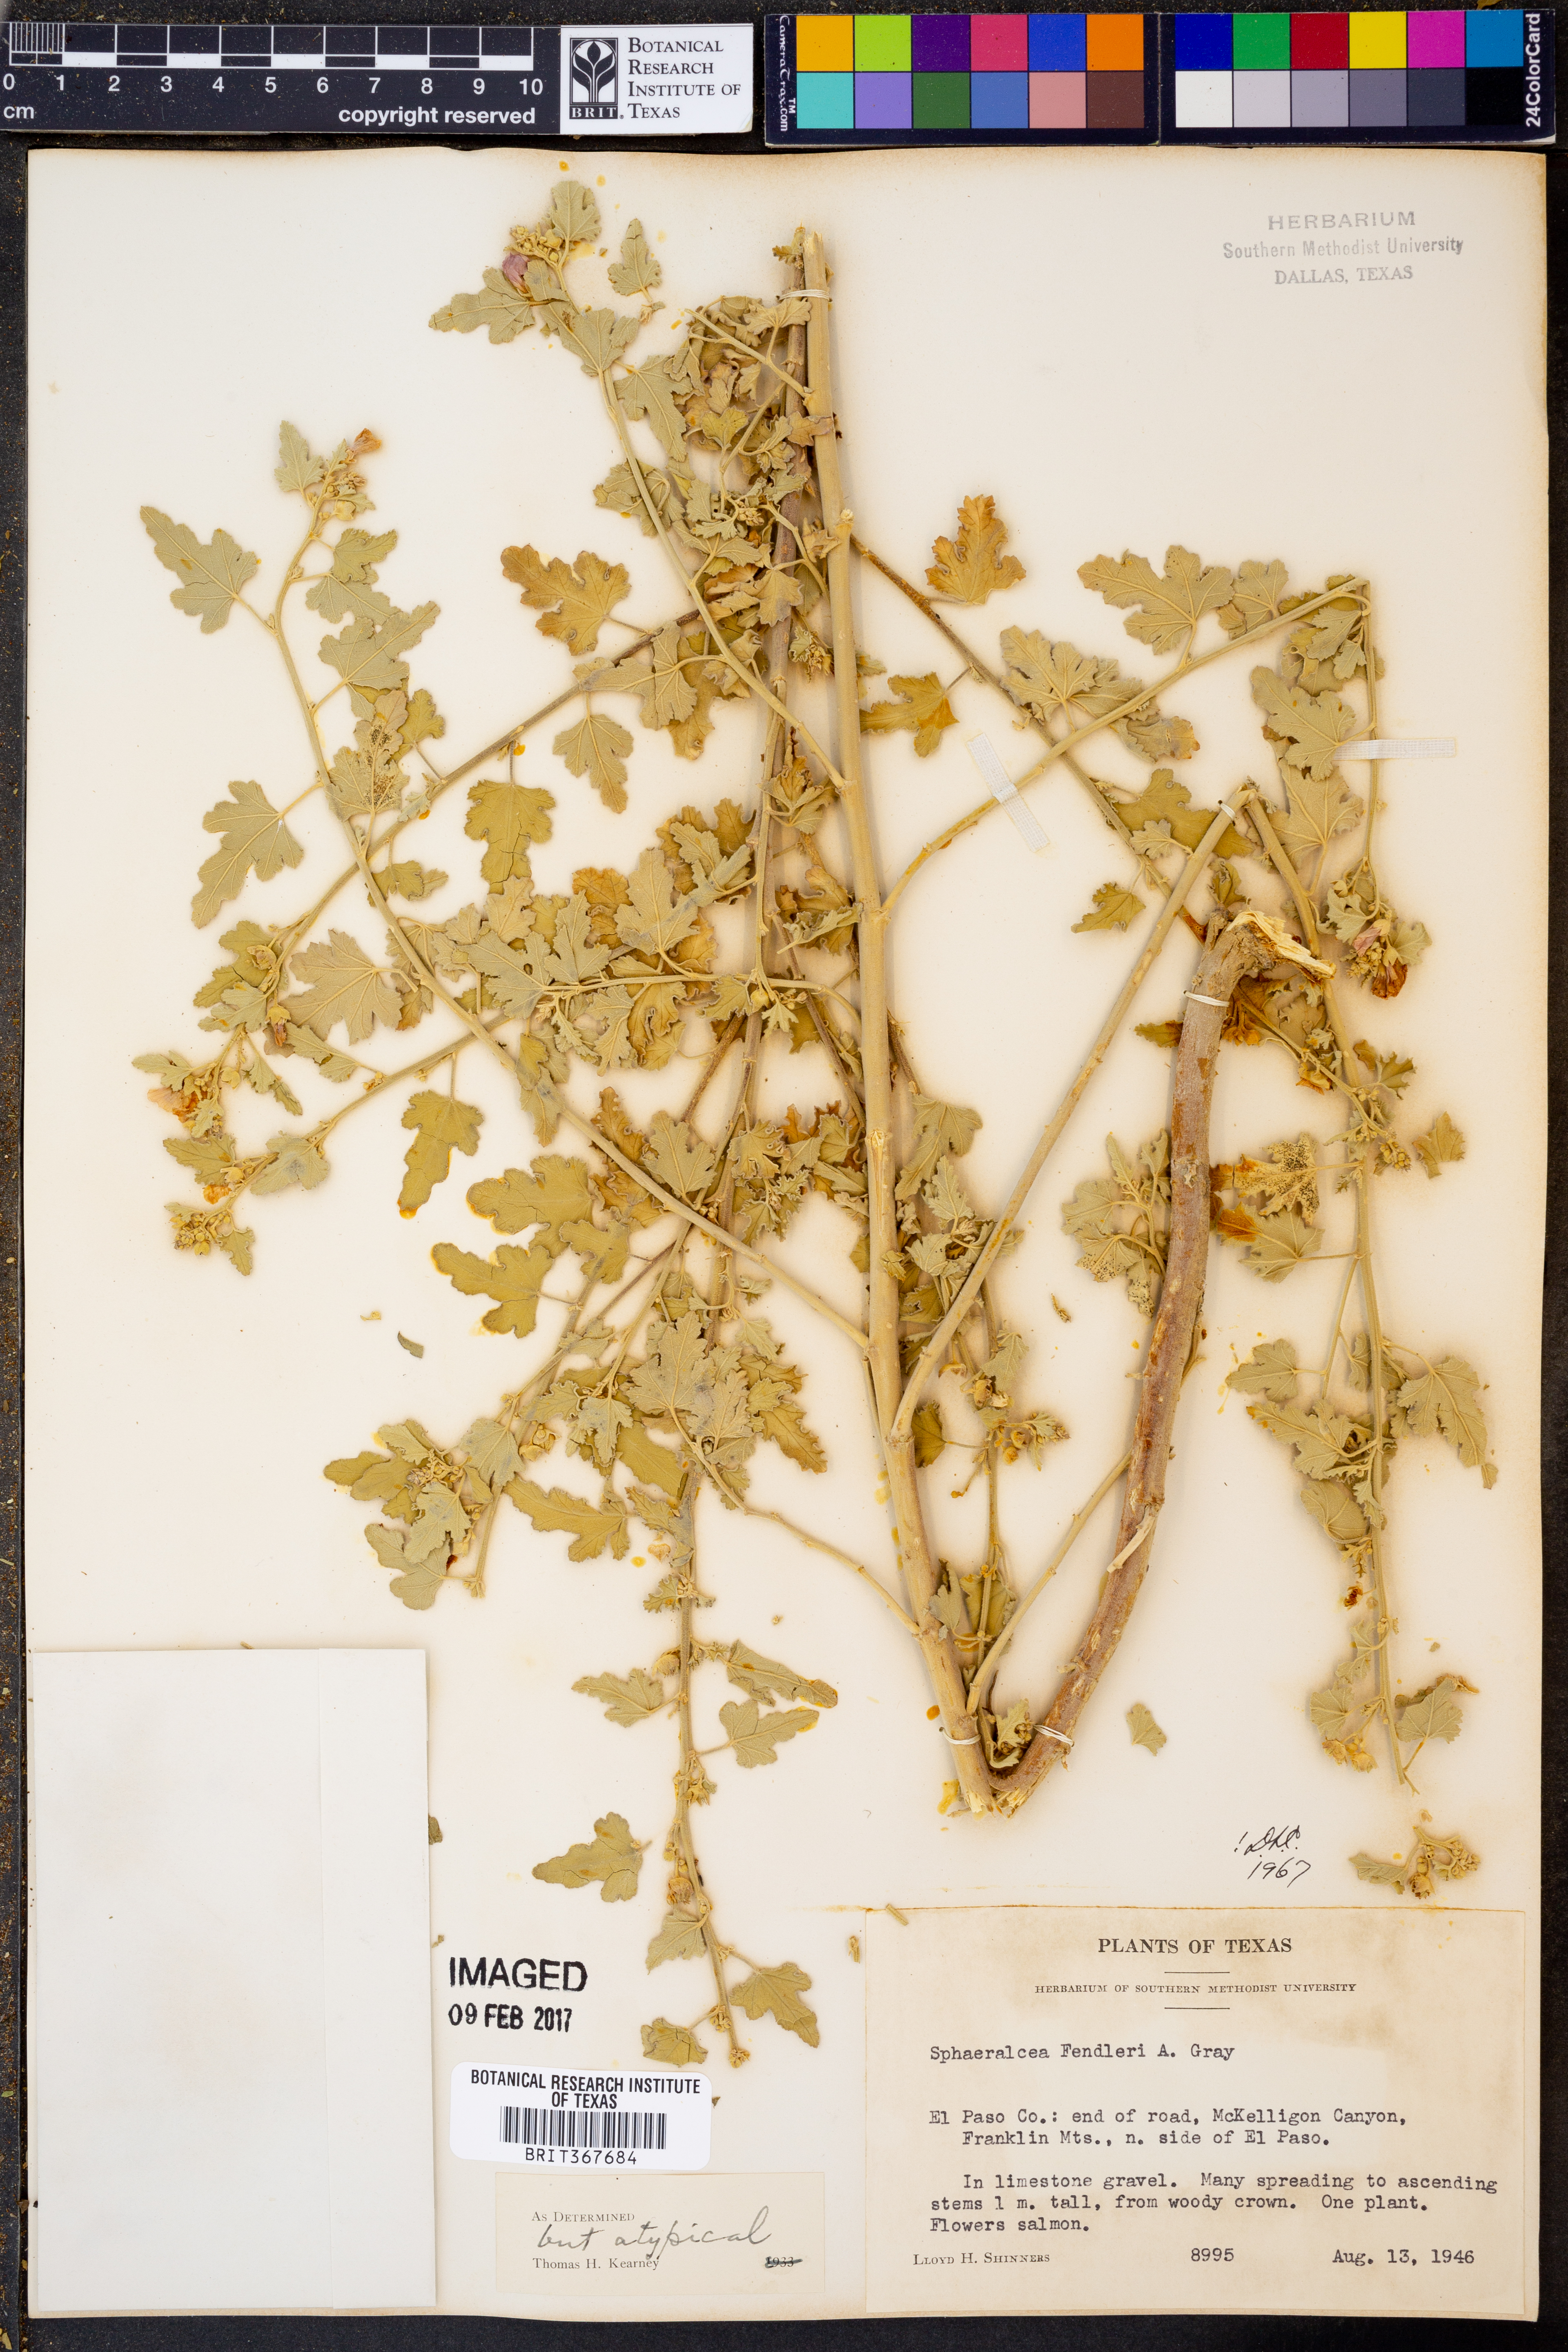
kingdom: Plantae
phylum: Tracheophyta
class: Magnoliopsida
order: Malvales
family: Malvaceae
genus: Sphaeralcea
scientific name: Sphaeralcea fendleri
